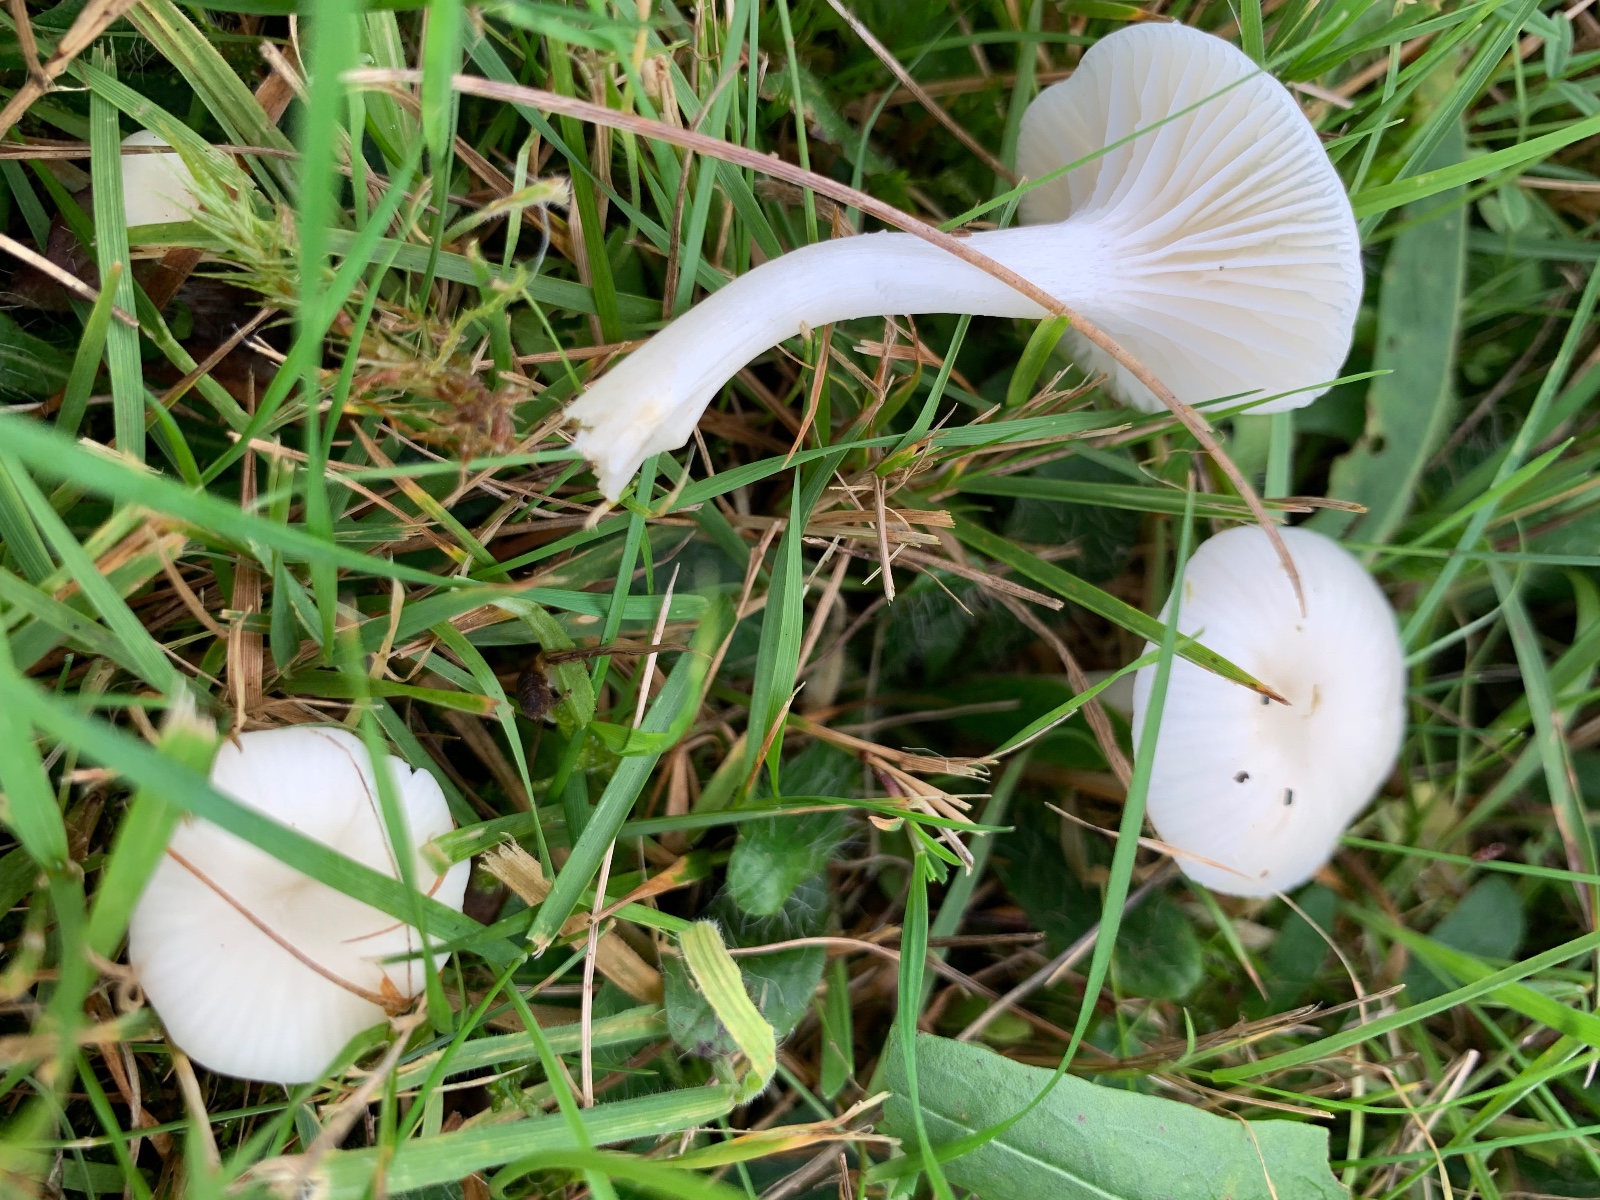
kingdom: Fungi
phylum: Basidiomycota
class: Agaricomycetes
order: Agaricales
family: Hygrophoraceae
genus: Cuphophyllus
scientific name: Cuphophyllus
